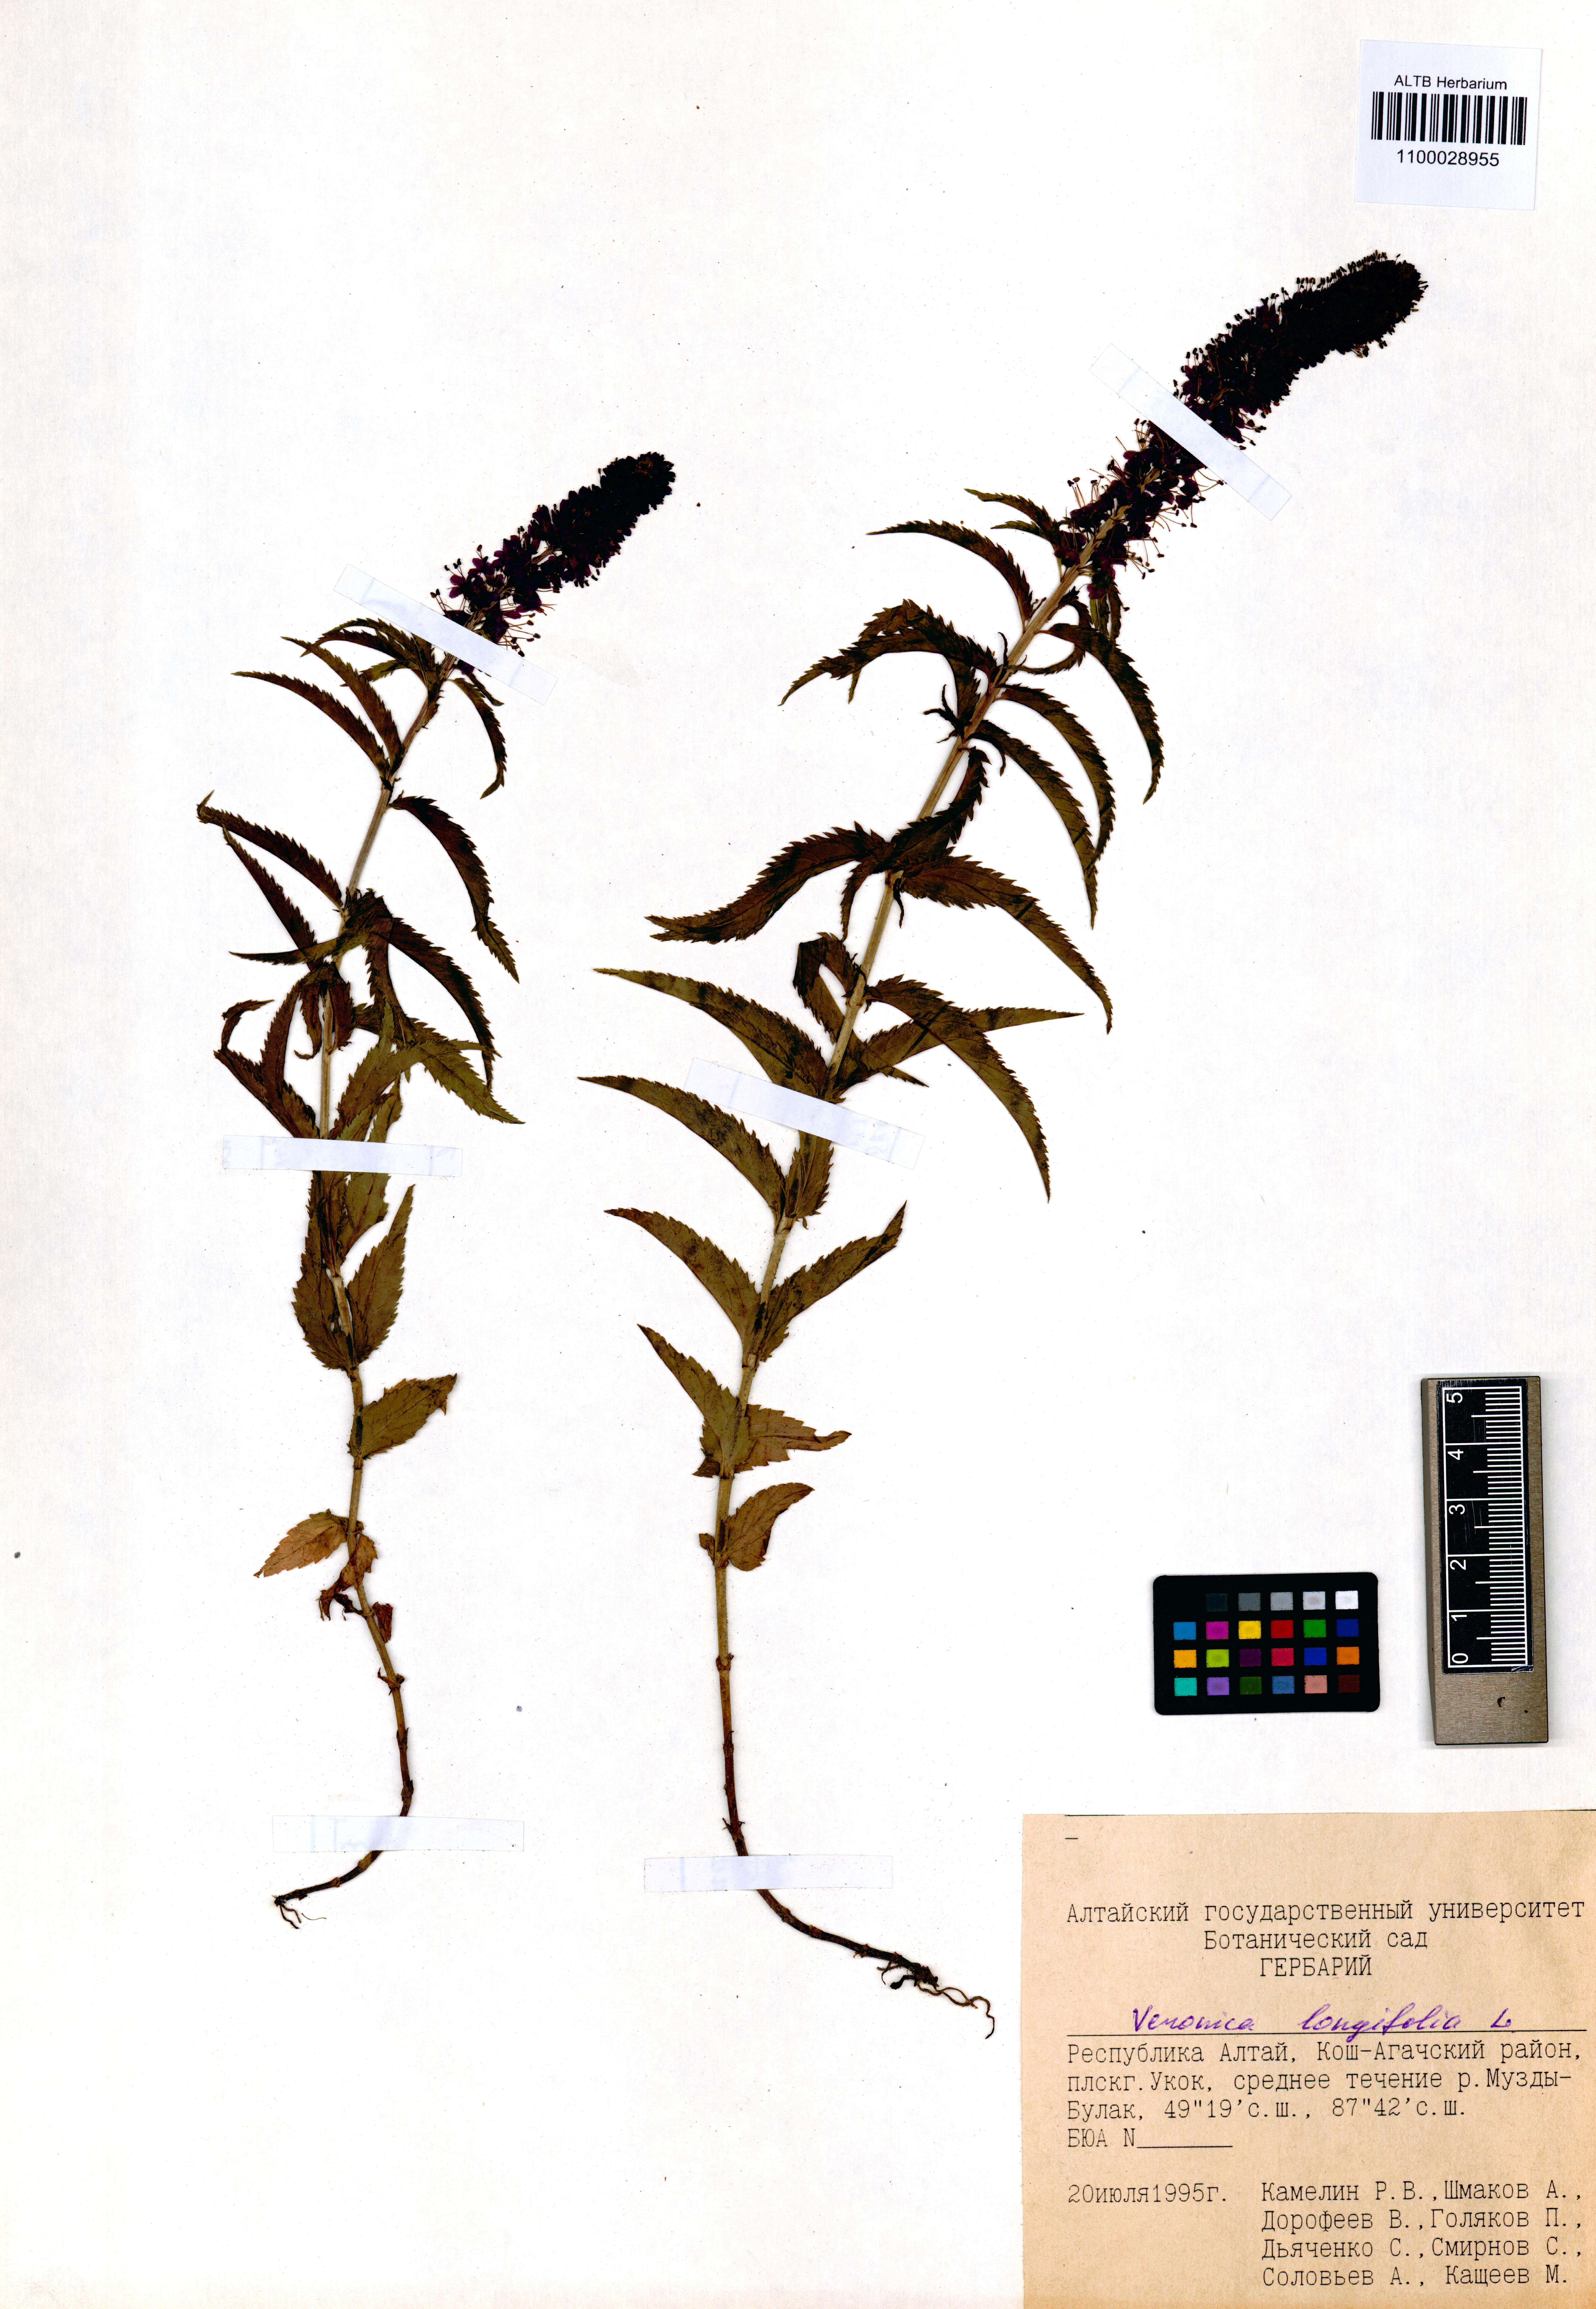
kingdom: Plantae
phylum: Tracheophyta
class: Magnoliopsida
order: Lamiales
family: Plantaginaceae
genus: Veronica
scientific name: Veronica longifolia
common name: Garden speedwell
